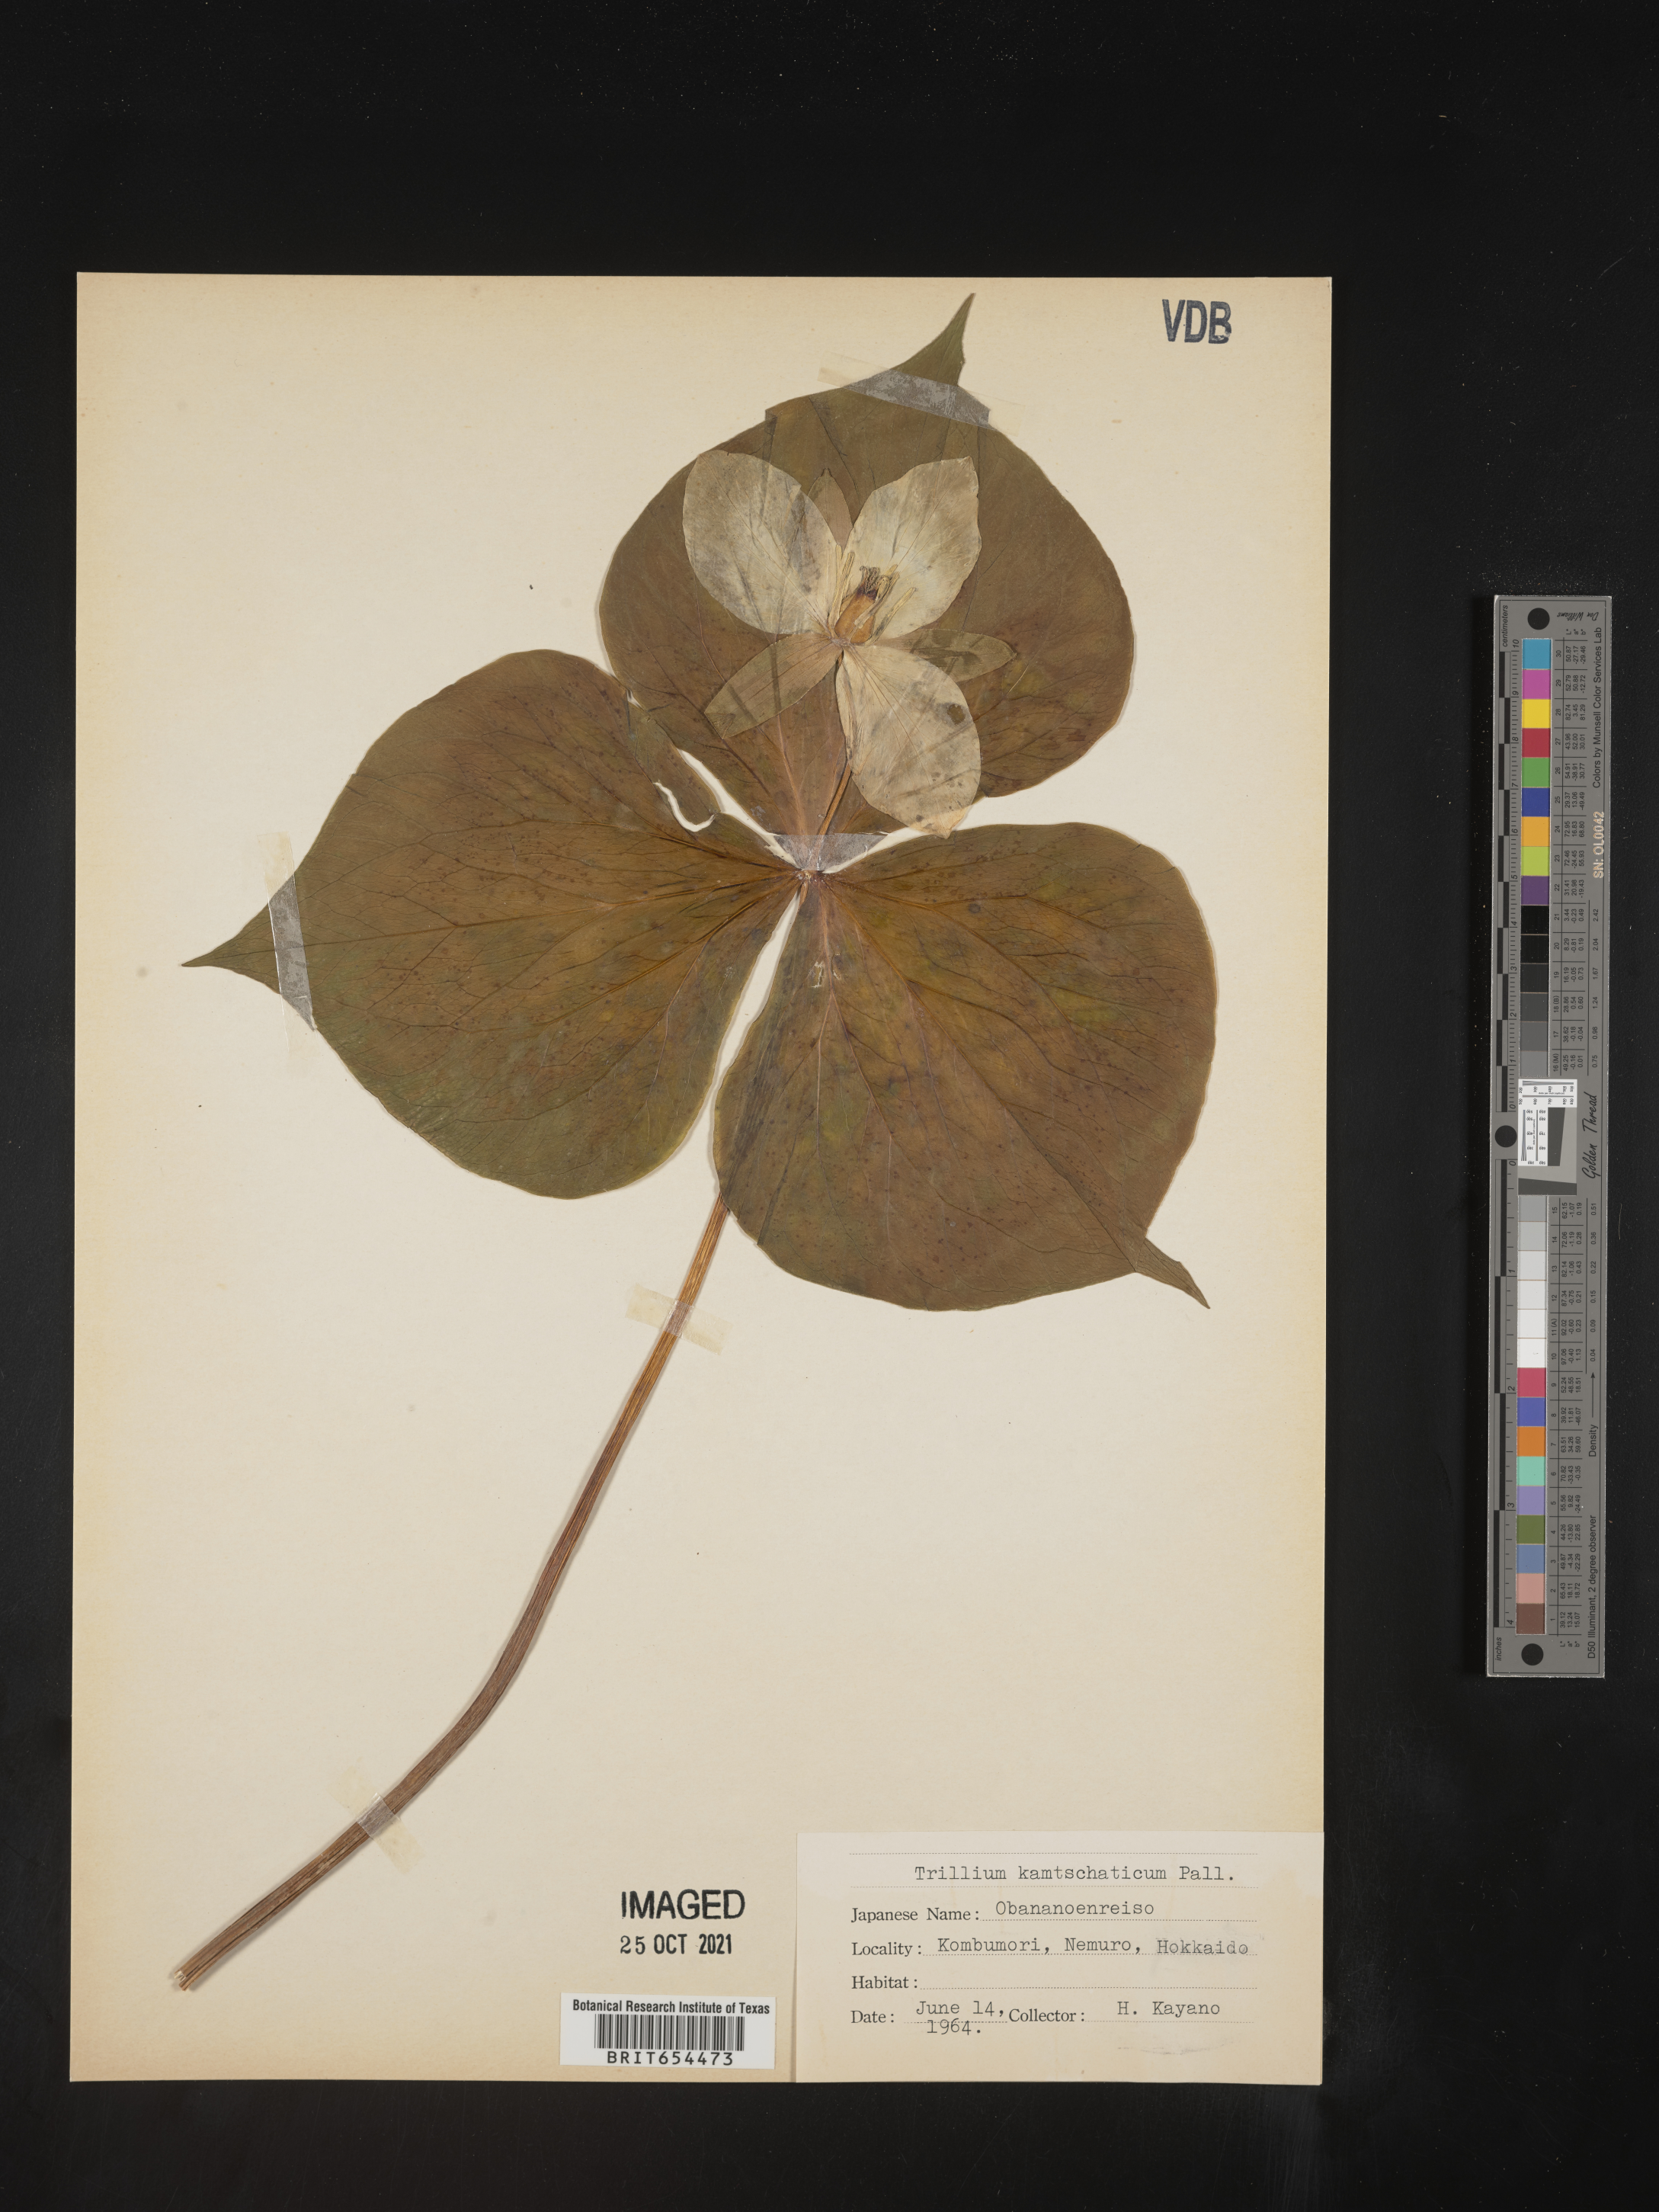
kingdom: Plantae
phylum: Tracheophyta
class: Liliopsida
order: Liliales
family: Melanthiaceae
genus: Trillium
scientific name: Trillium
